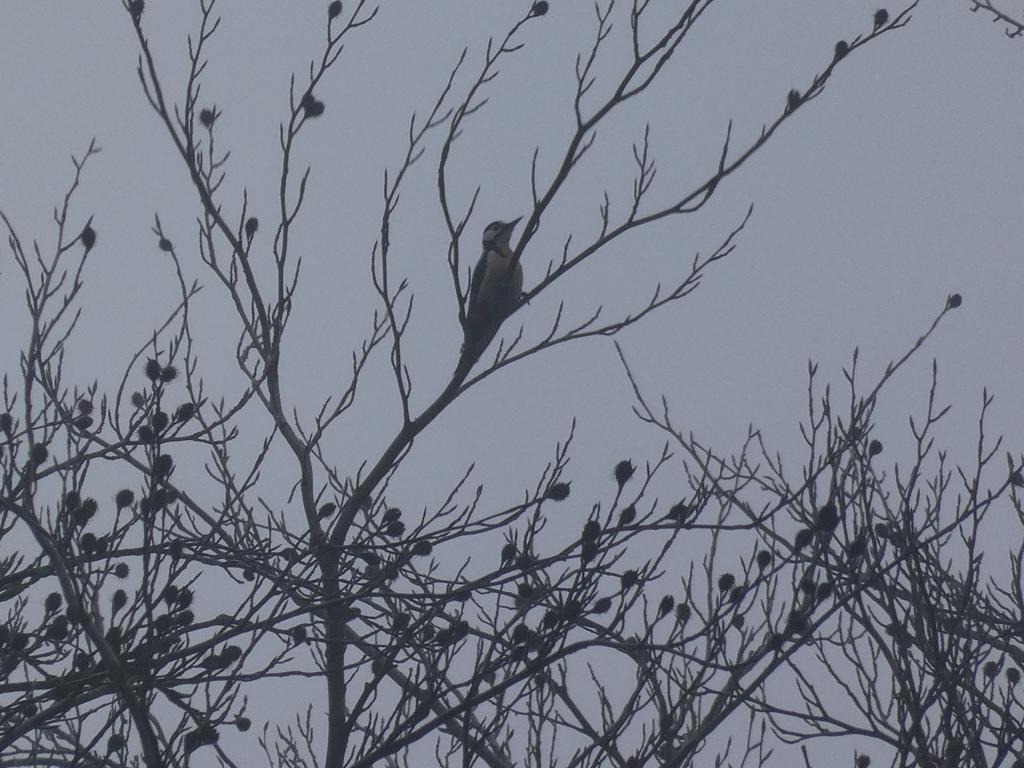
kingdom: Animalia
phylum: Chordata
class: Aves
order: Piciformes
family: Picidae
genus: Dendrocopos
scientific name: Dendrocopos major
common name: Stor flagspætte
